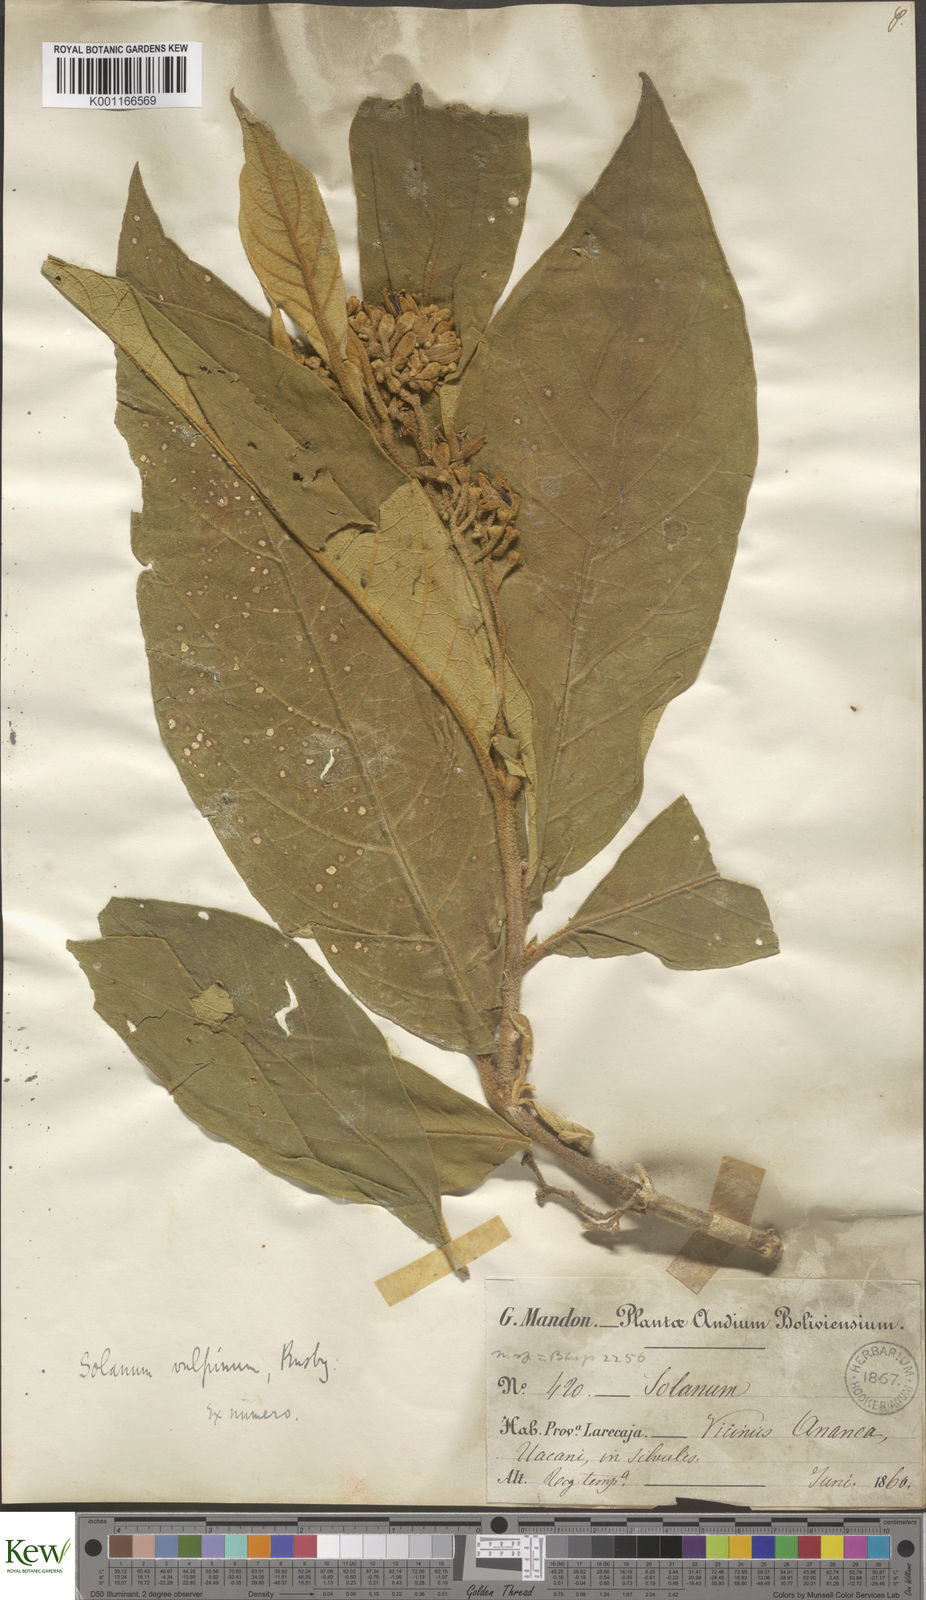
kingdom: Plantae
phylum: Tracheophyta
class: Magnoliopsida
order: Solanales
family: Solanaceae
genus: Solanum
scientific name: Solanum actaeibotrys
